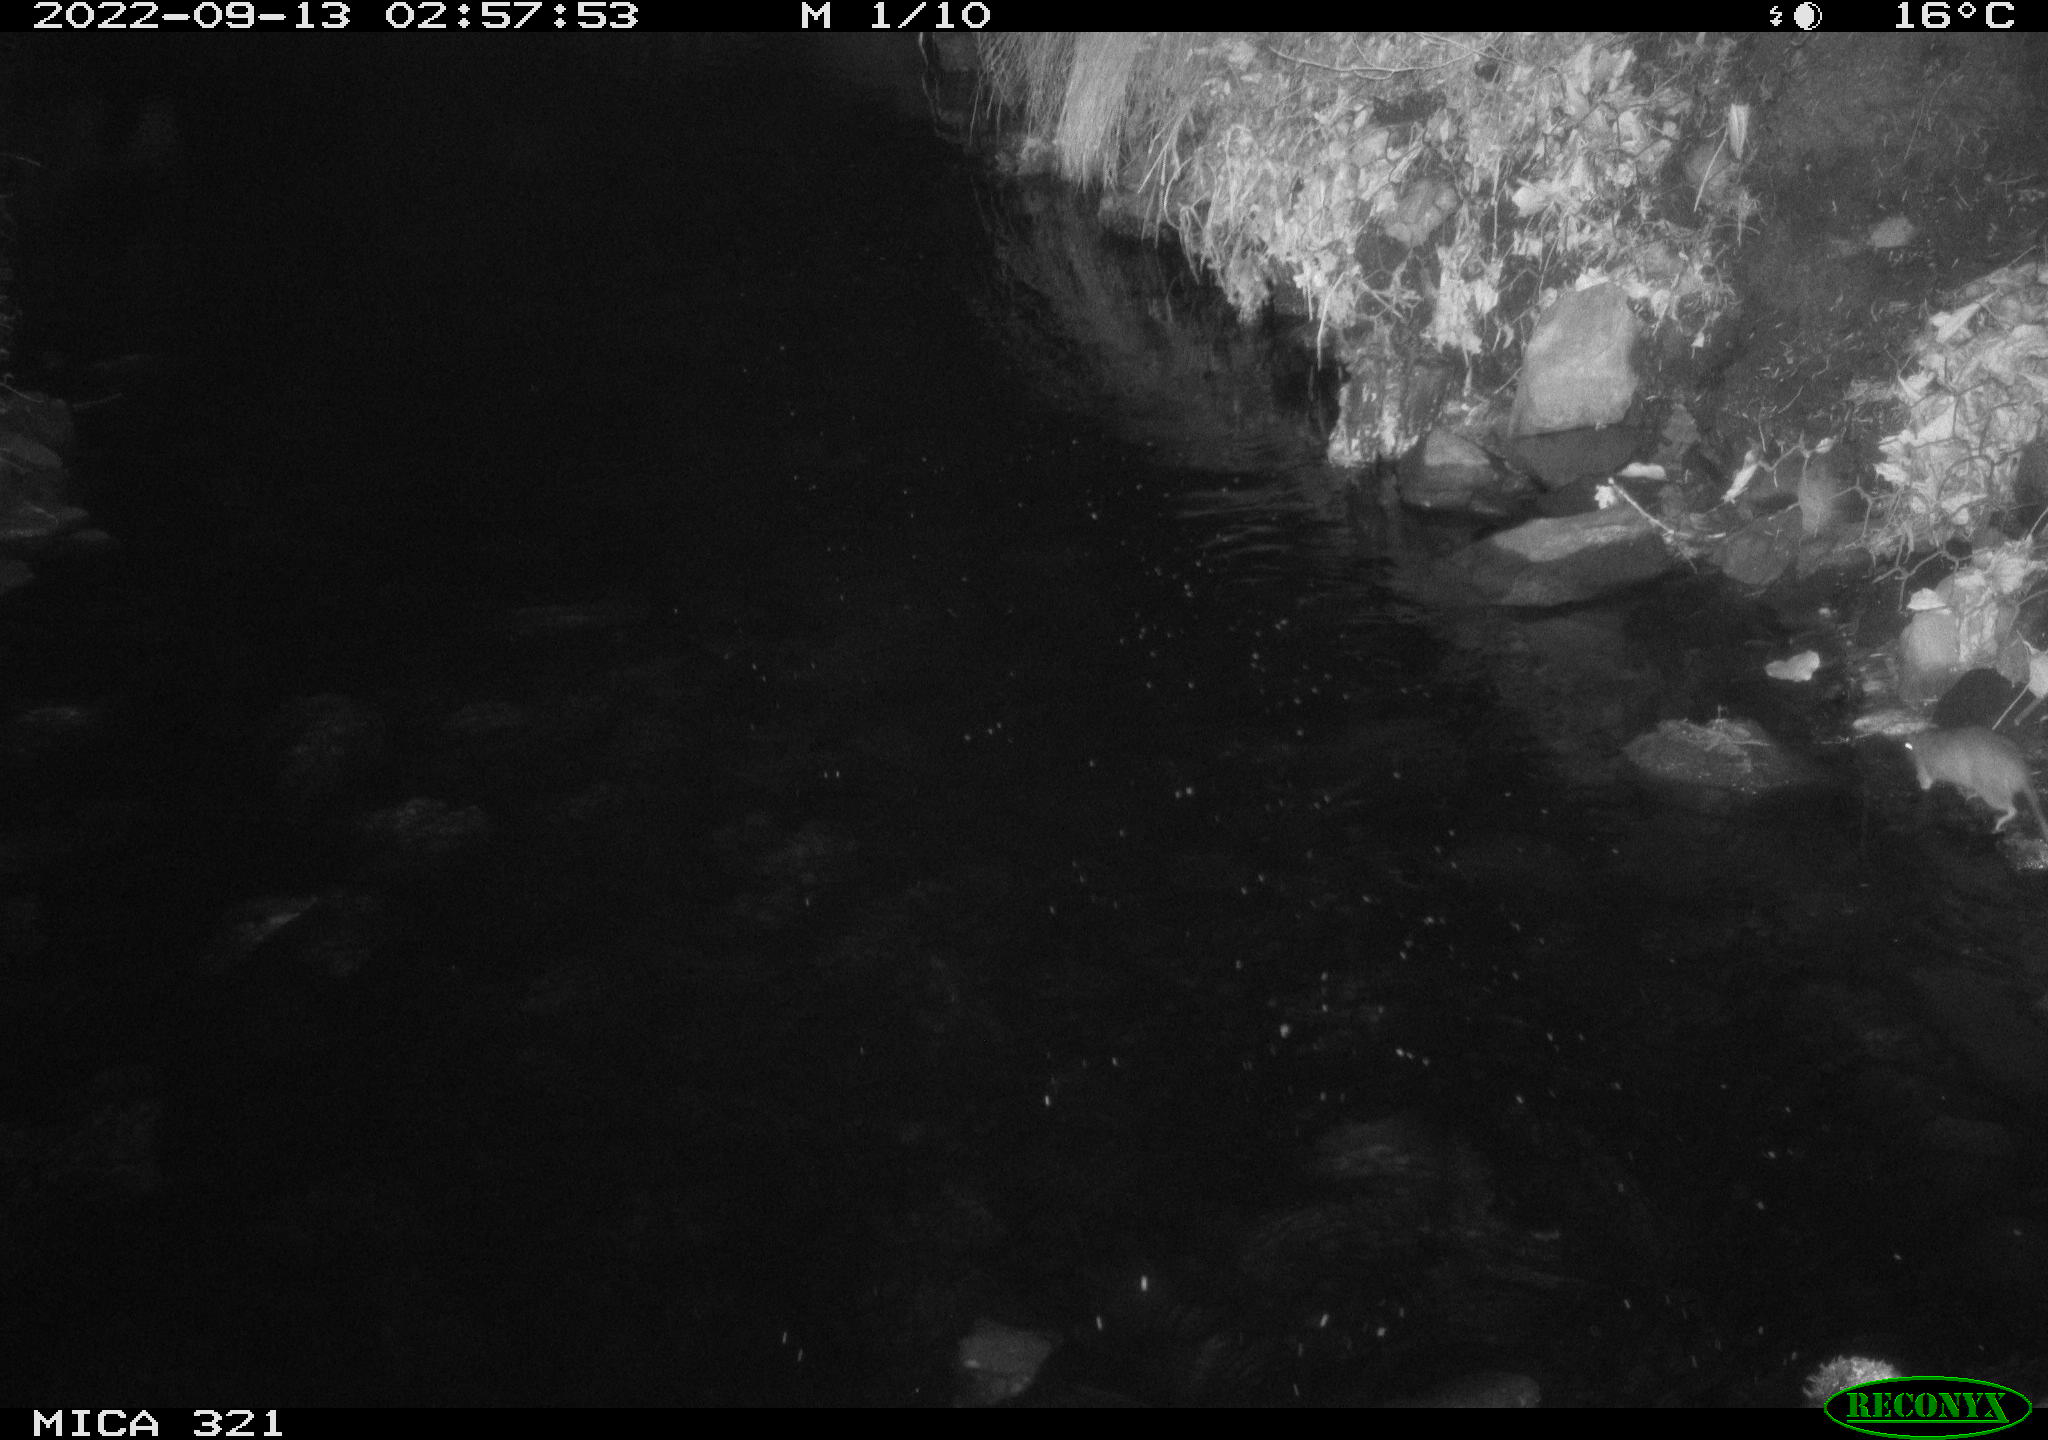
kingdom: Animalia
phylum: Chordata
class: Mammalia
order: Rodentia
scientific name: Rodentia
